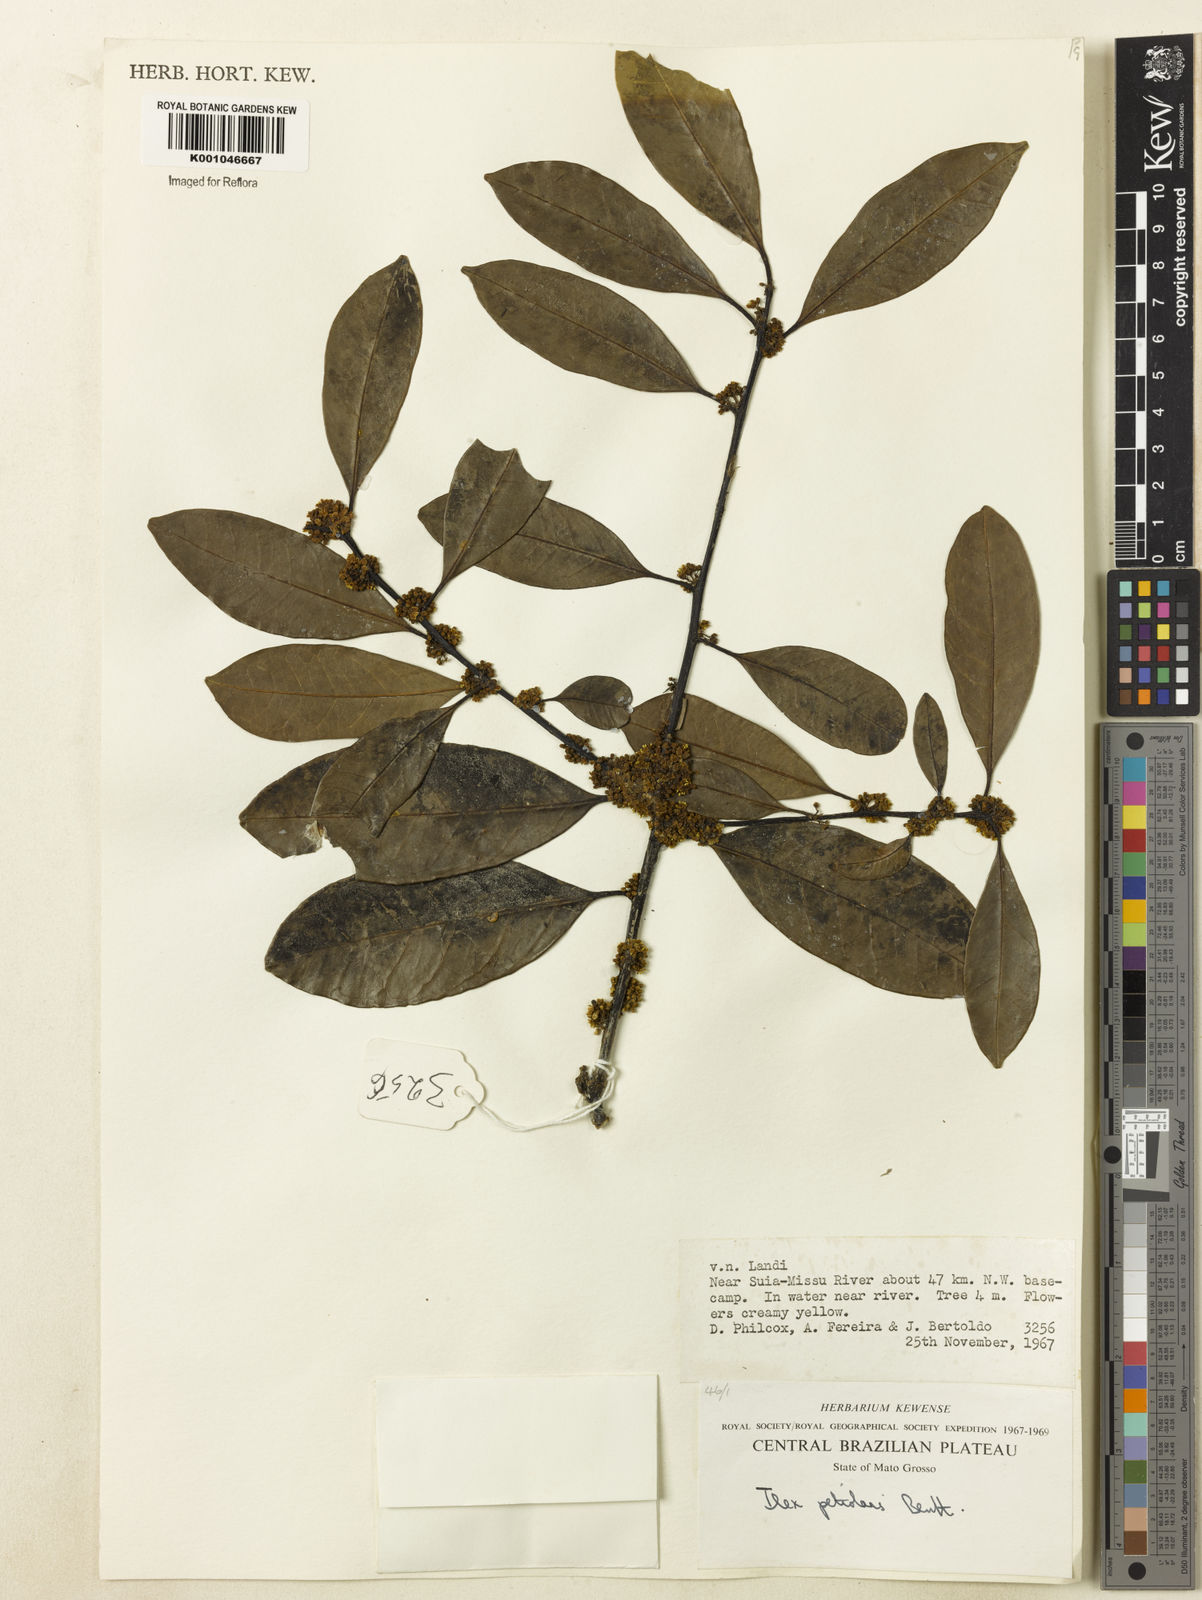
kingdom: Plantae
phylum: Tracheophyta
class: Magnoliopsida
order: Aquifoliales
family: Aquifoliaceae
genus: Ilex
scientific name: Ilex lundii
